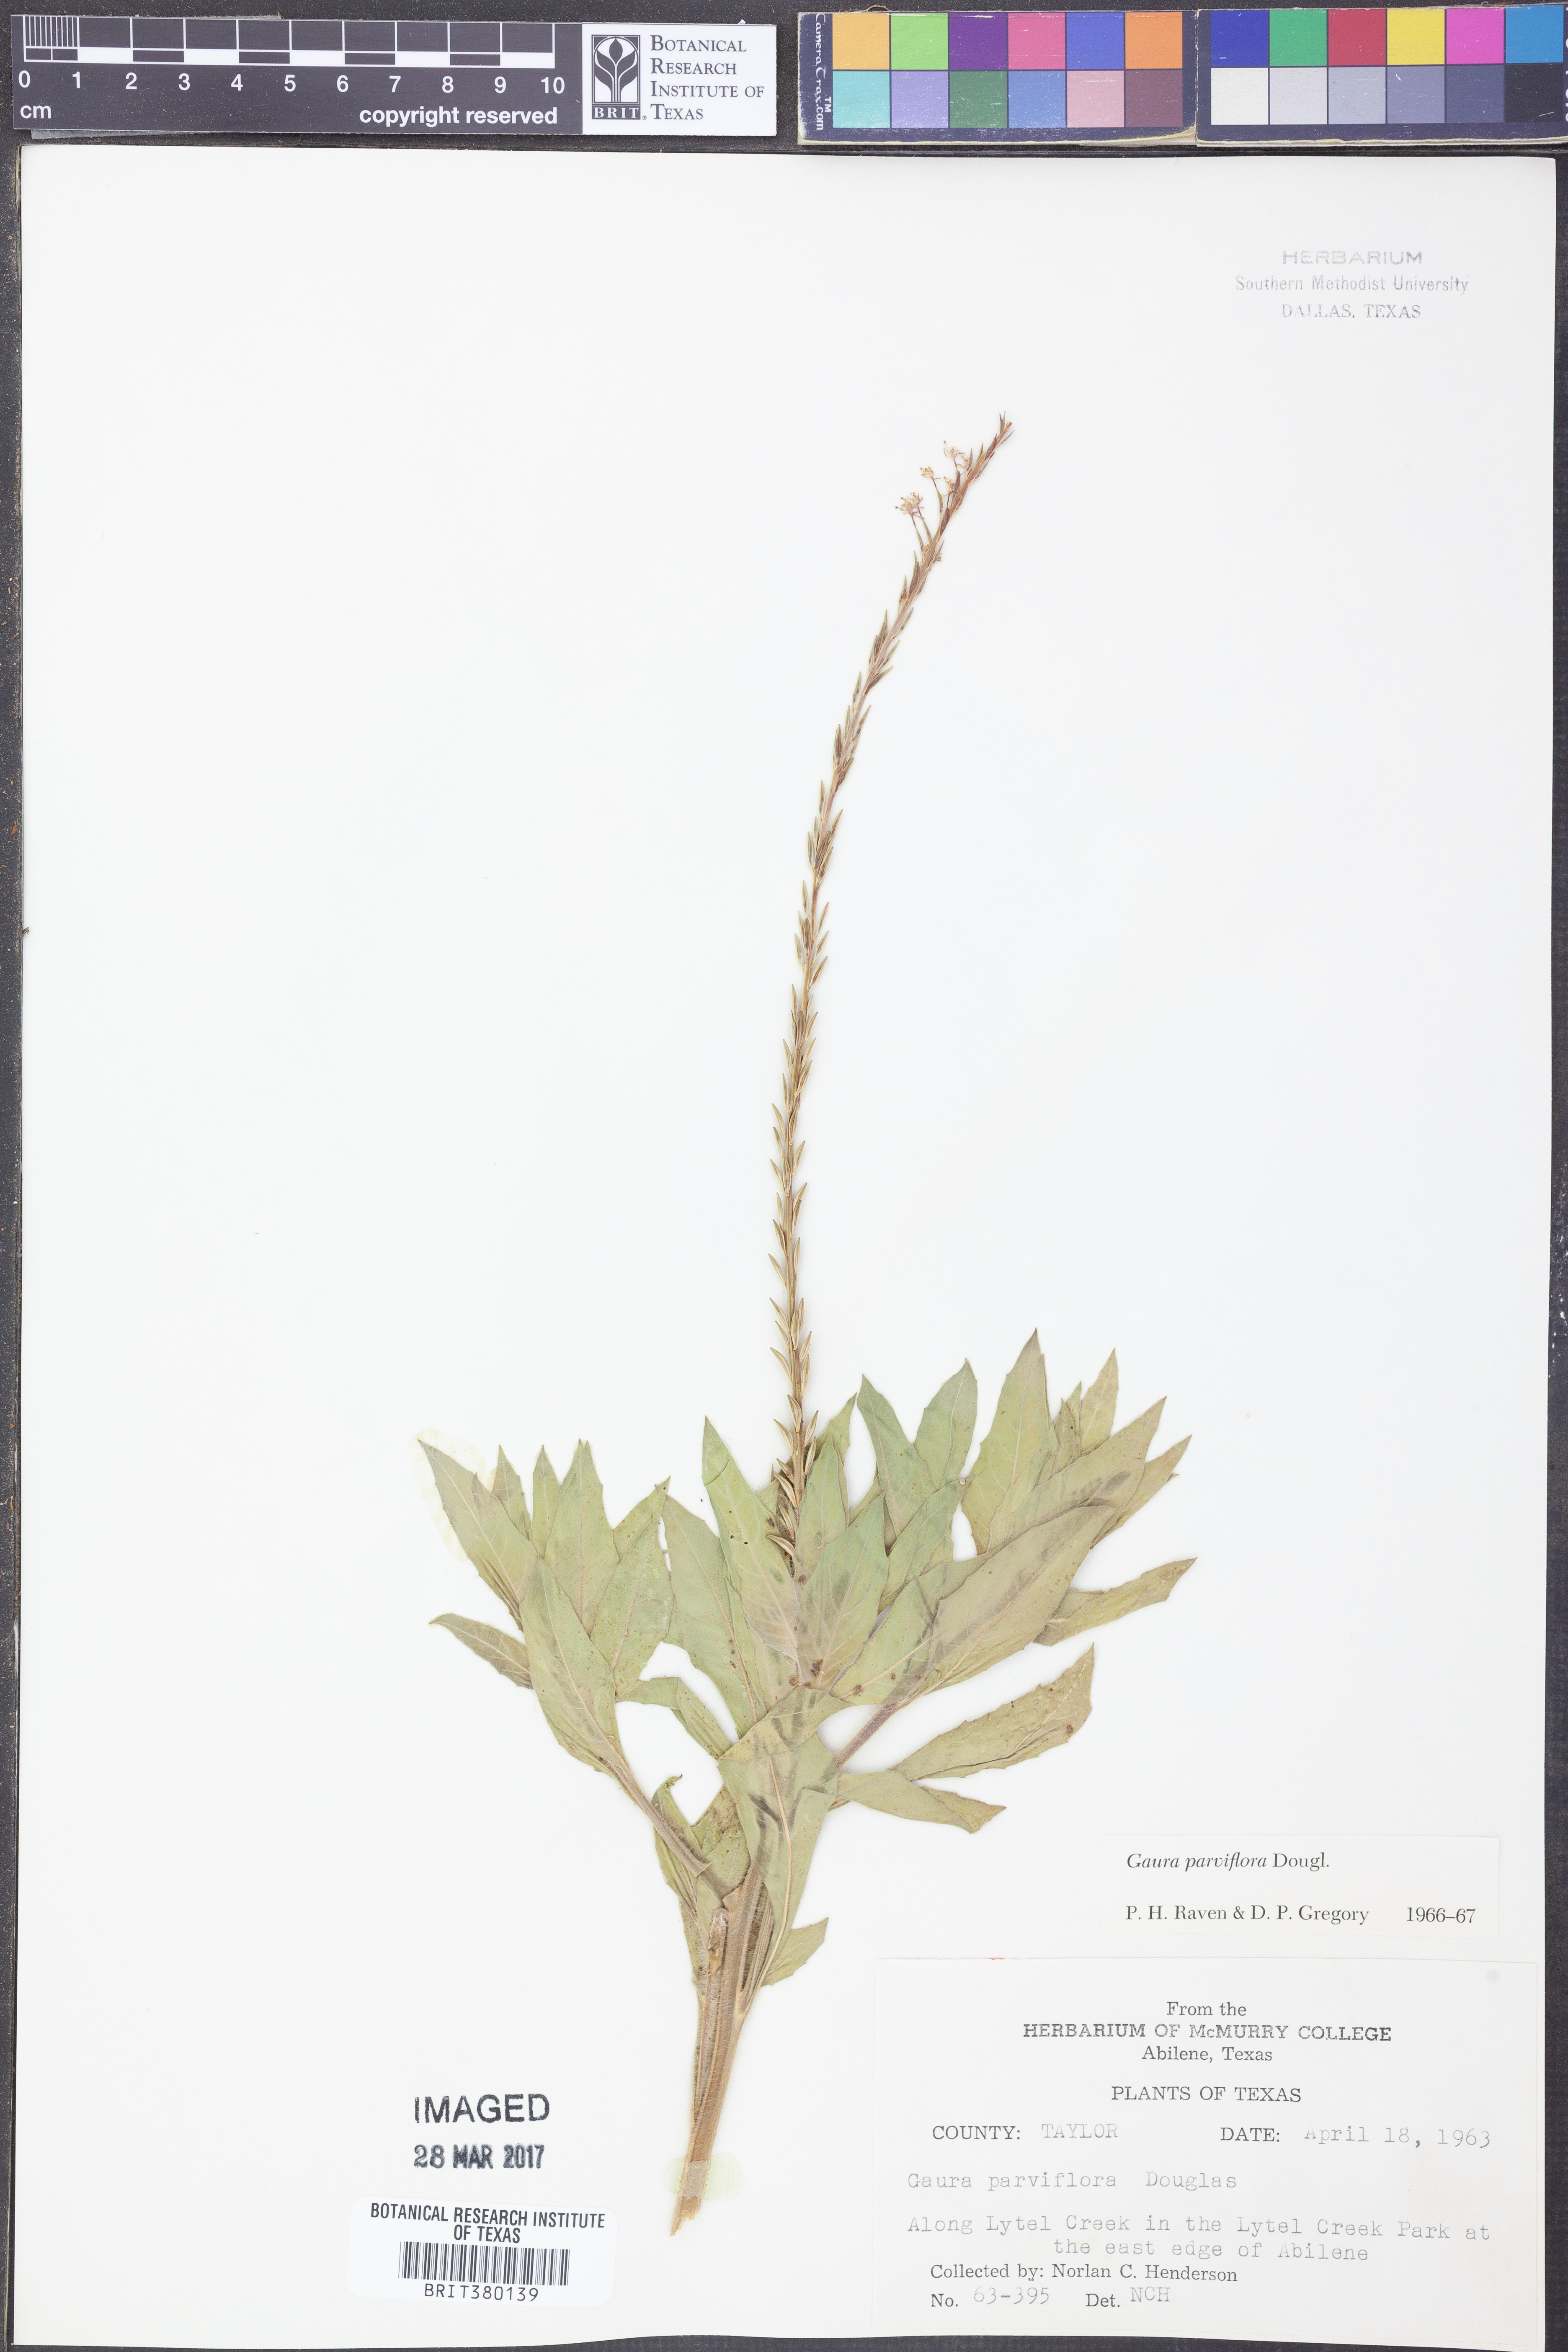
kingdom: Plantae
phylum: Tracheophyta
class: Magnoliopsida
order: Myrtales
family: Onagraceae
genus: Oenothera
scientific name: Oenothera curtiflora
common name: Velvetweed
